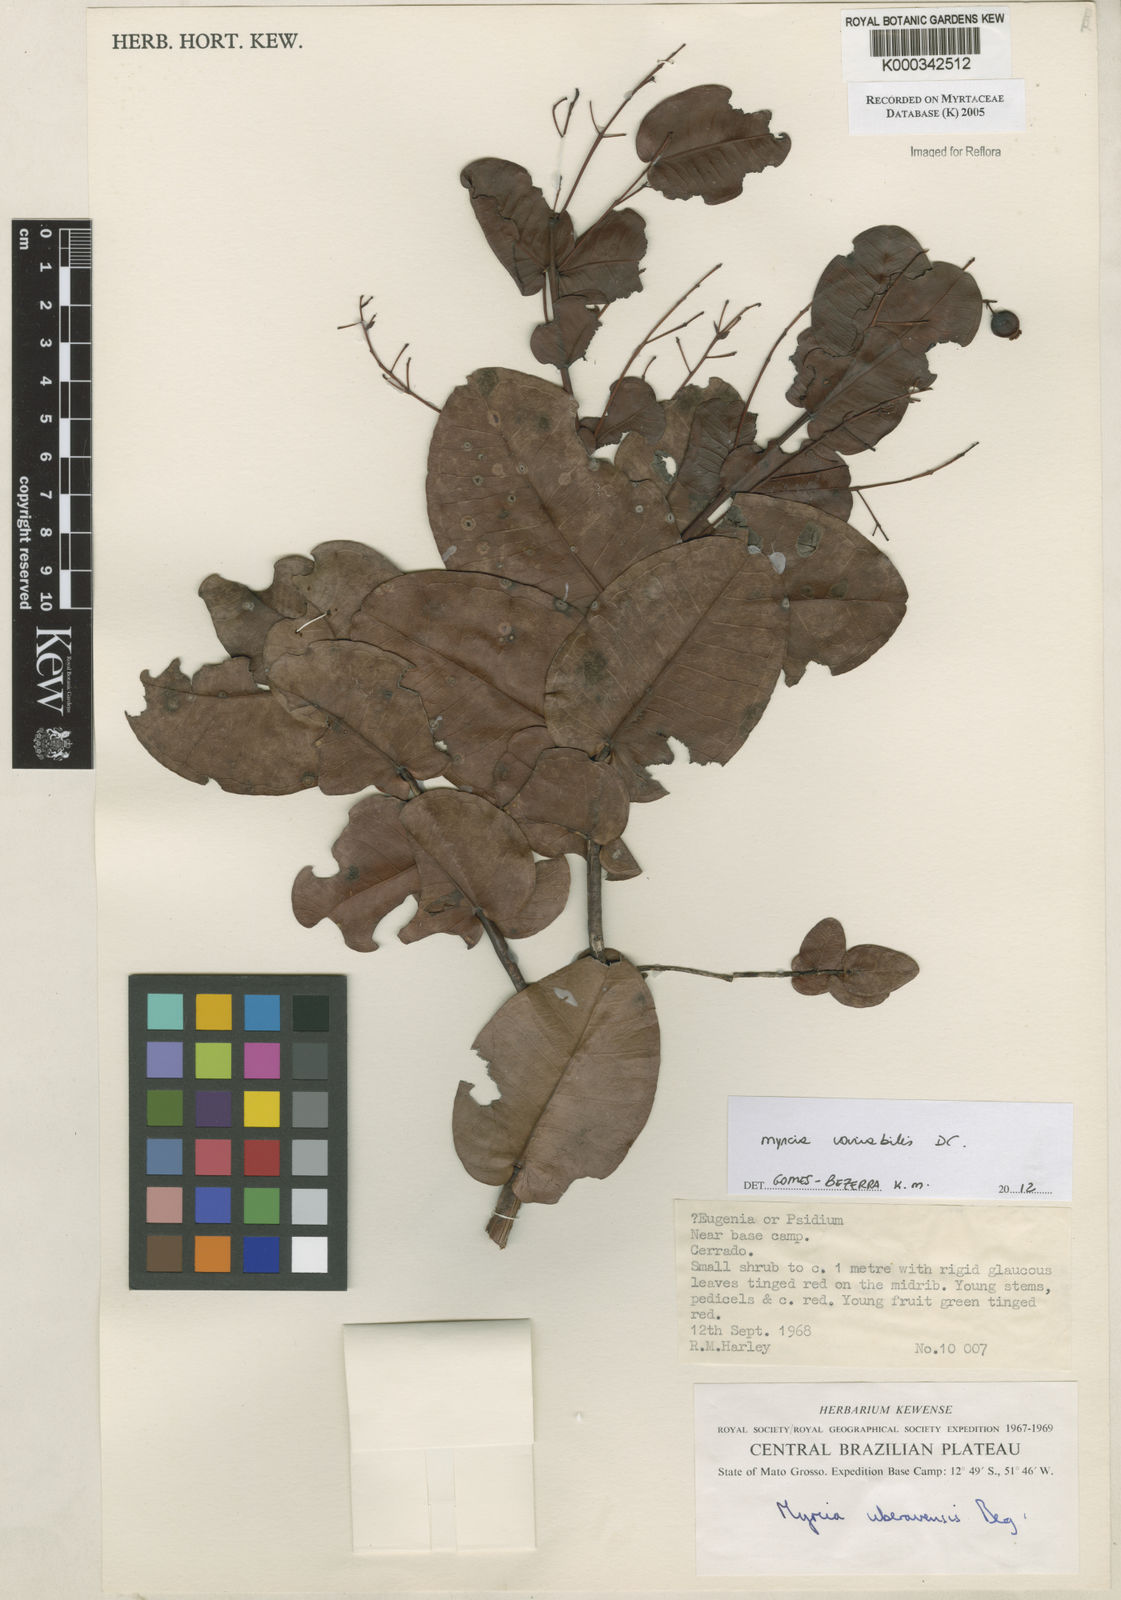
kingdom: Plantae
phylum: Tracheophyta
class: Magnoliopsida
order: Myrtales
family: Myrtaceae
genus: Myrcia
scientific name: Myrcia uberavensis
